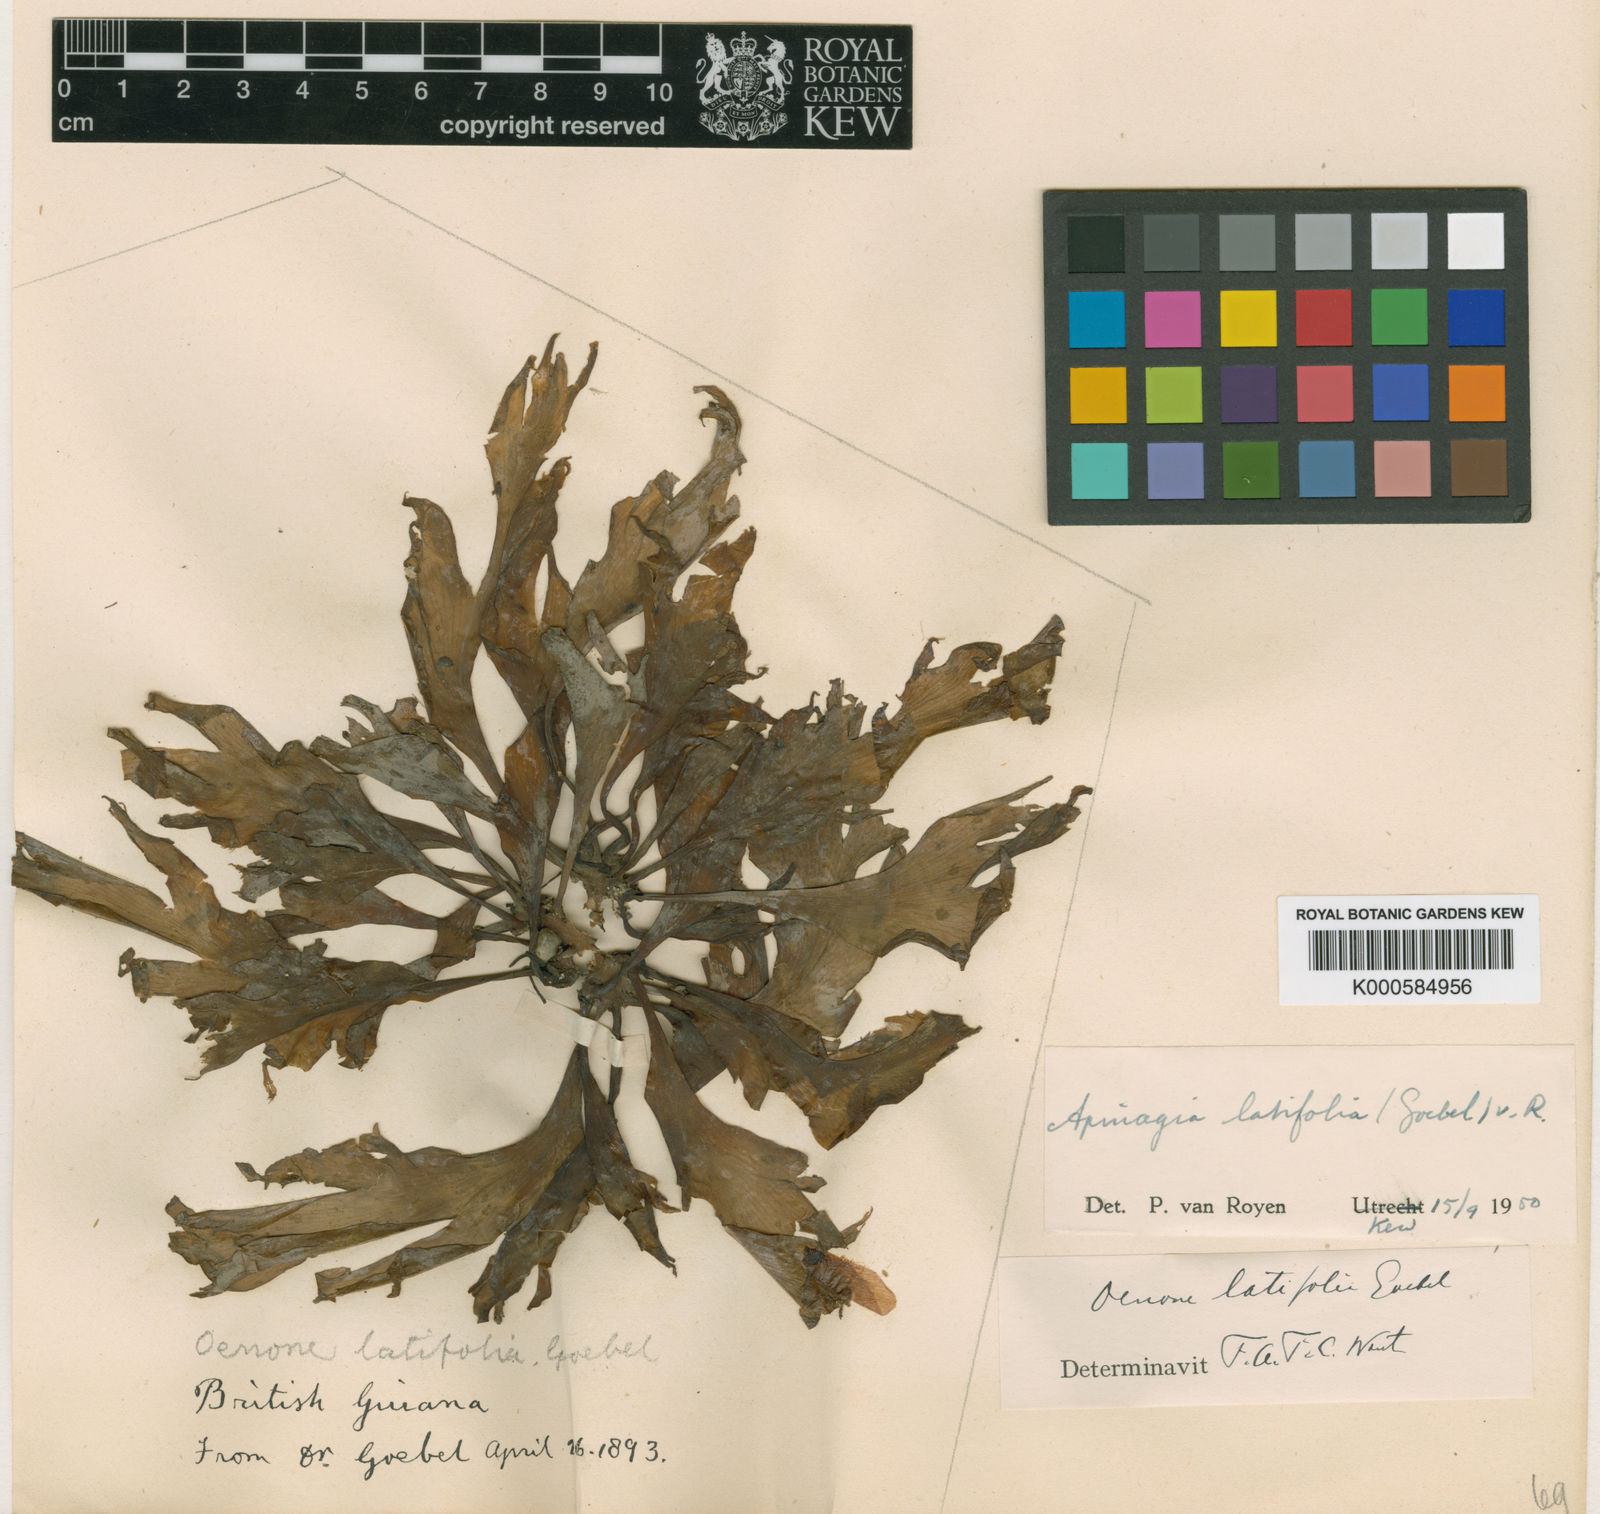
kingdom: Plantae
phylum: Tracheophyta
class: Magnoliopsida
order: Malpighiales
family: Podostemaceae
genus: Apinagia
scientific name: Apinagia kochii
